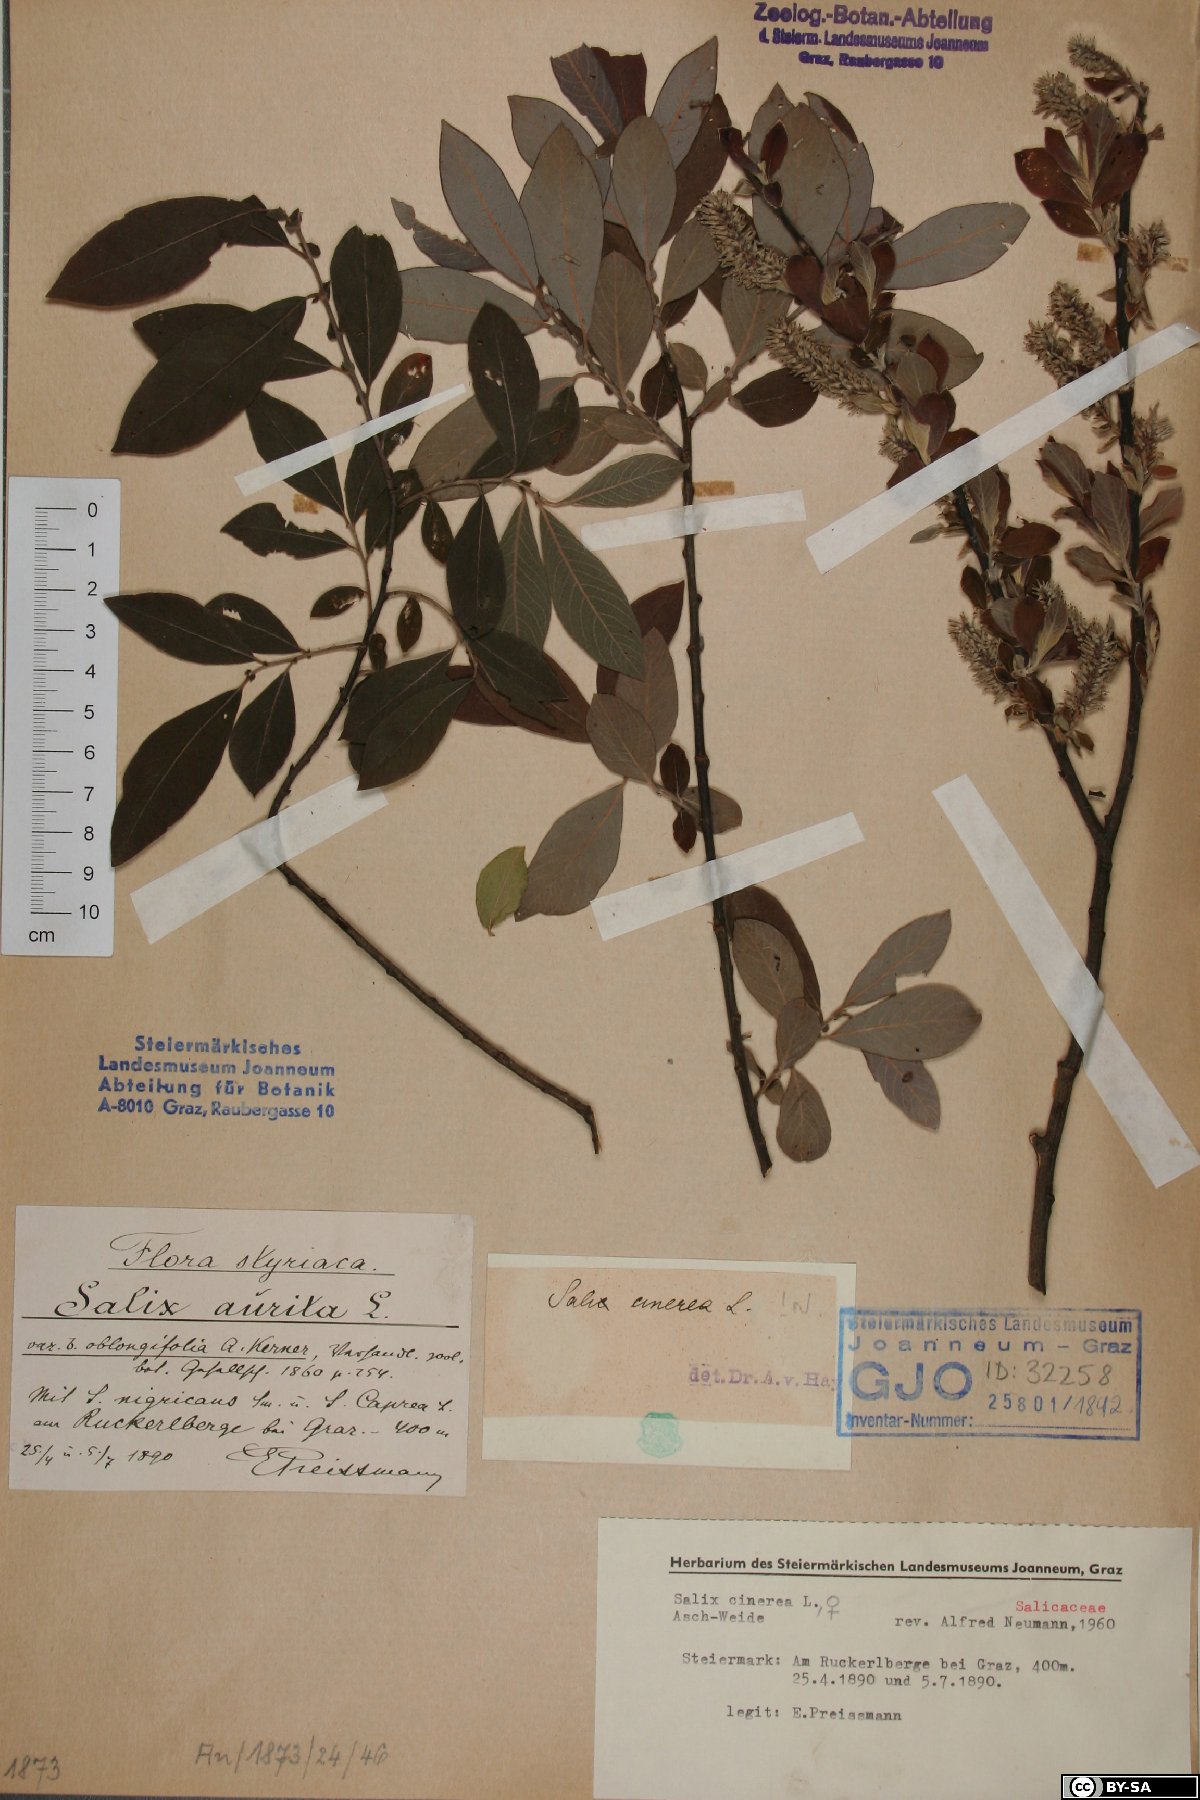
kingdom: Plantae
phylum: Tracheophyta
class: Magnoliopsida
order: Malpighiales
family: Salicaceae
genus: Salix
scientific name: Salix cinerea
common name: Common sallow
